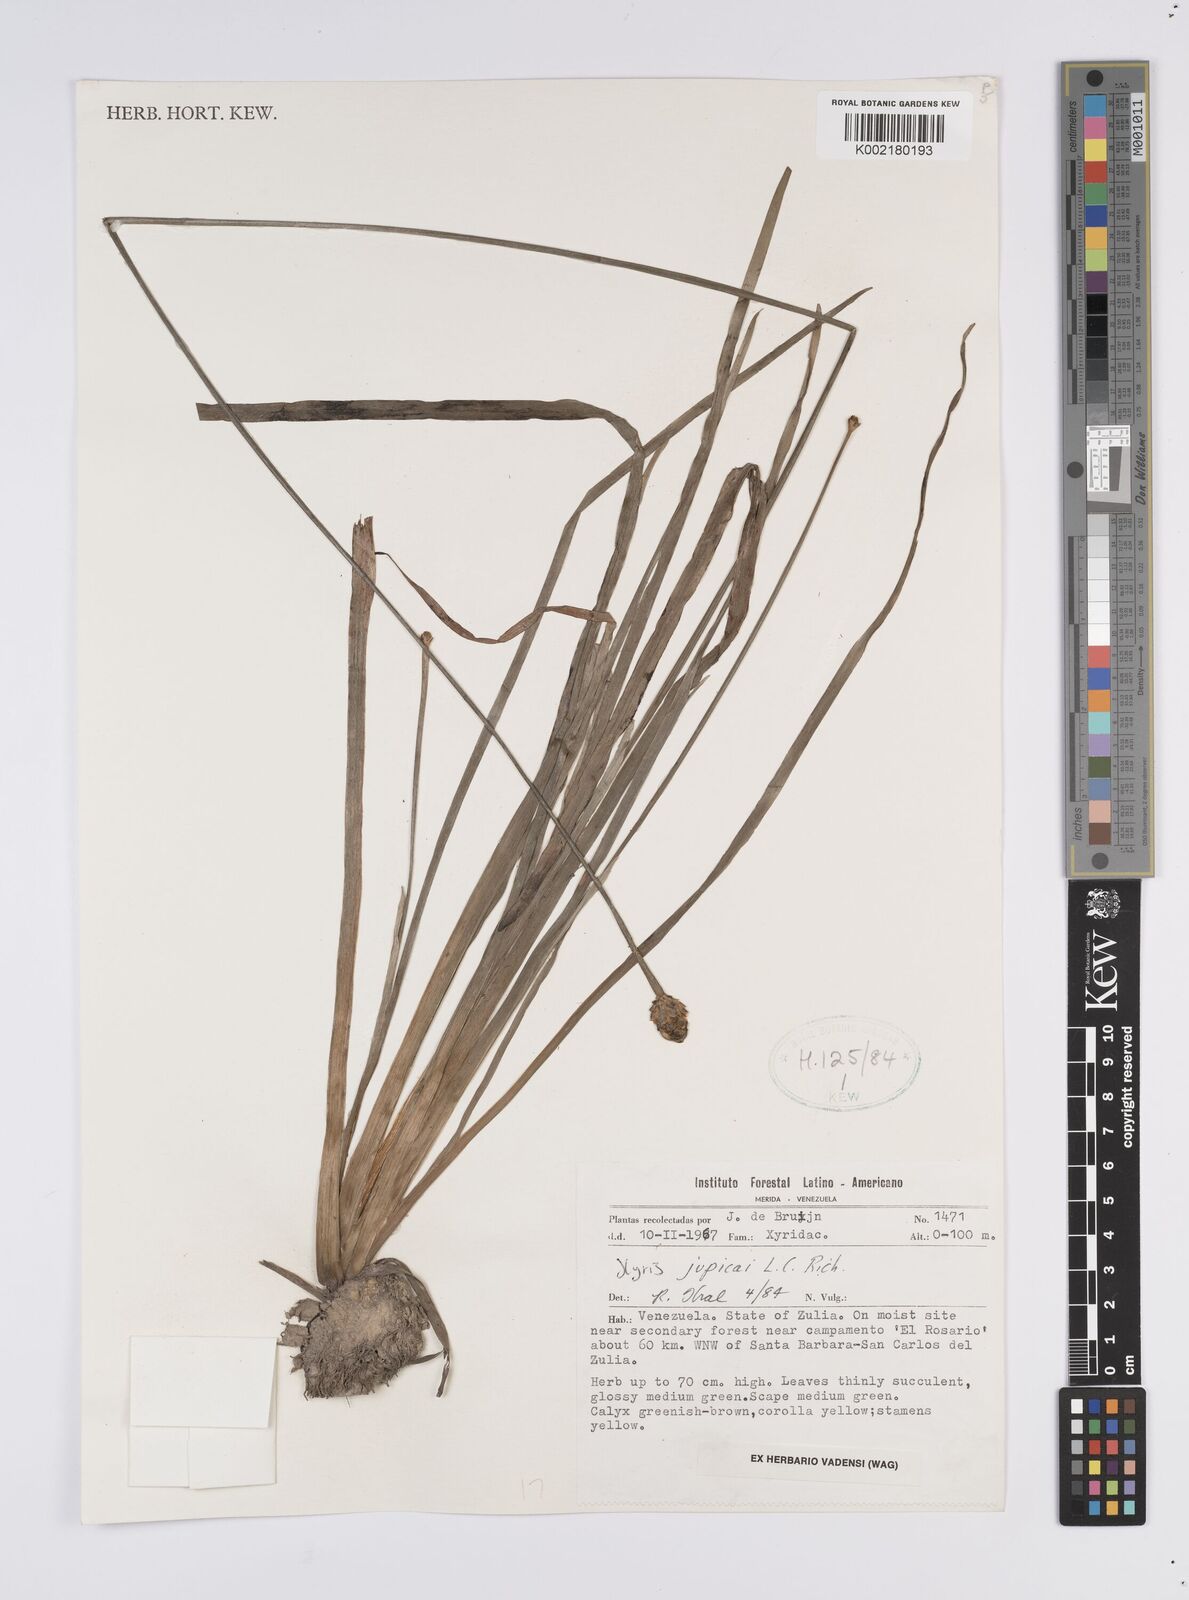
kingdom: Plantae
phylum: Tracheophyta
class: Liliopsida
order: Poales
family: Xyridaceae
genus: Xyris
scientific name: Xyris jupicai
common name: Richard's yelloweyed grass
